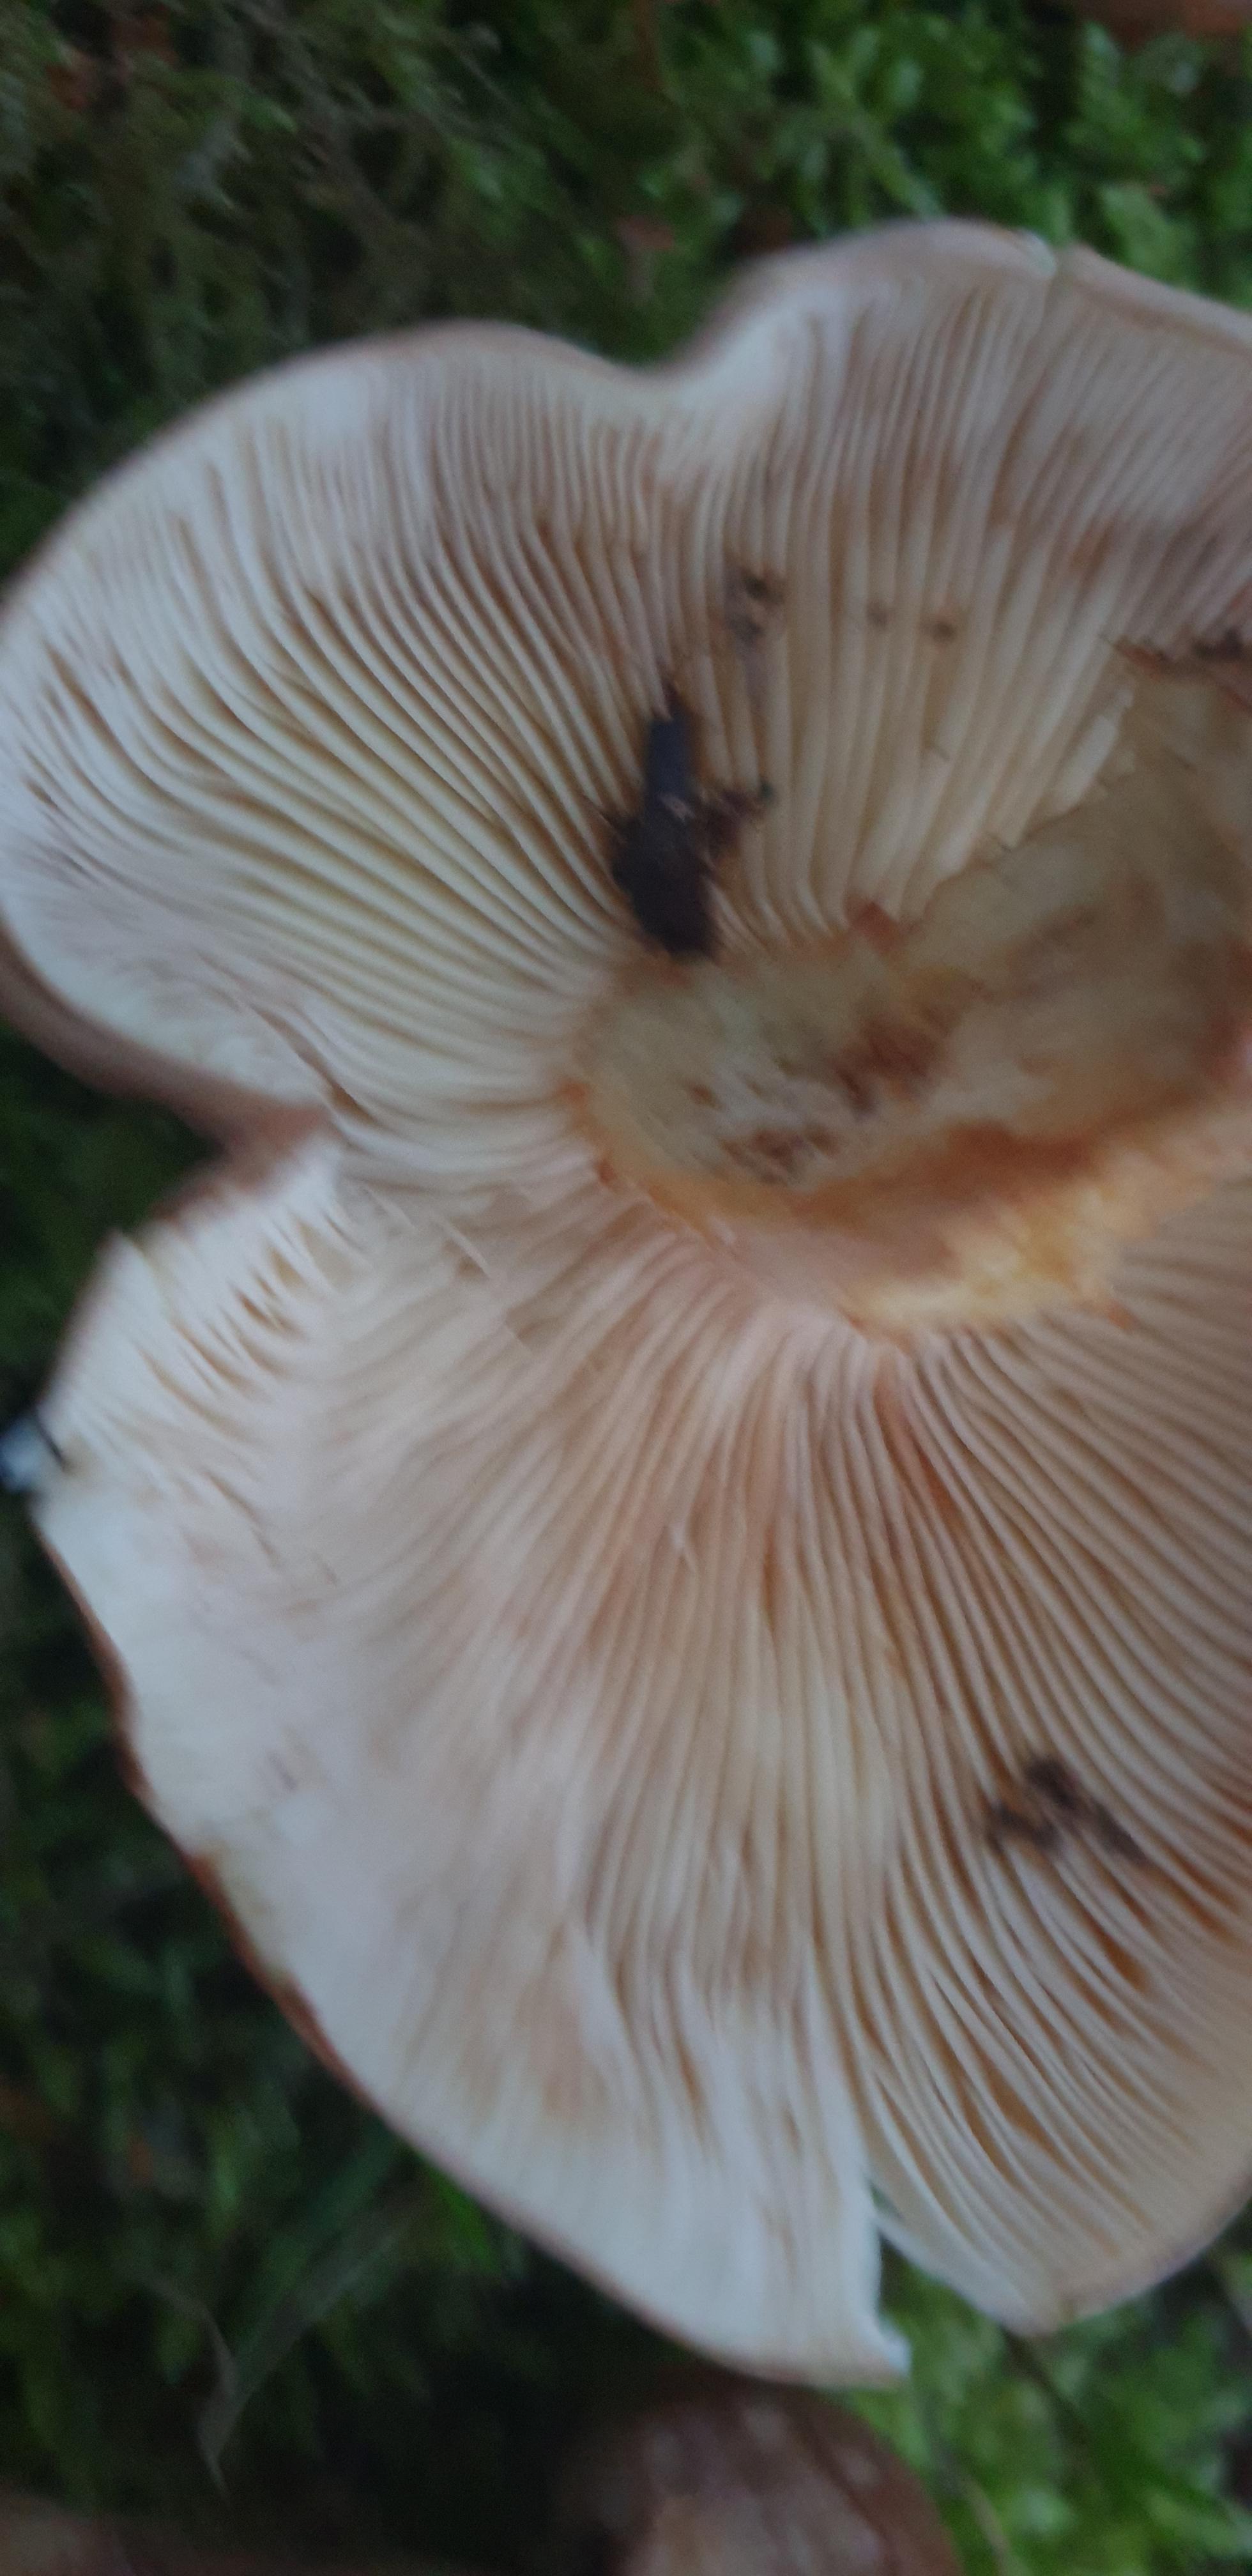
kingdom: Fungi
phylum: Basidiomycota
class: Agaricomycetes
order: Agaricales
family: Tricholomataceae
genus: Tricholoma
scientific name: Tricholoma fulvum
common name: birke-ridderhat
